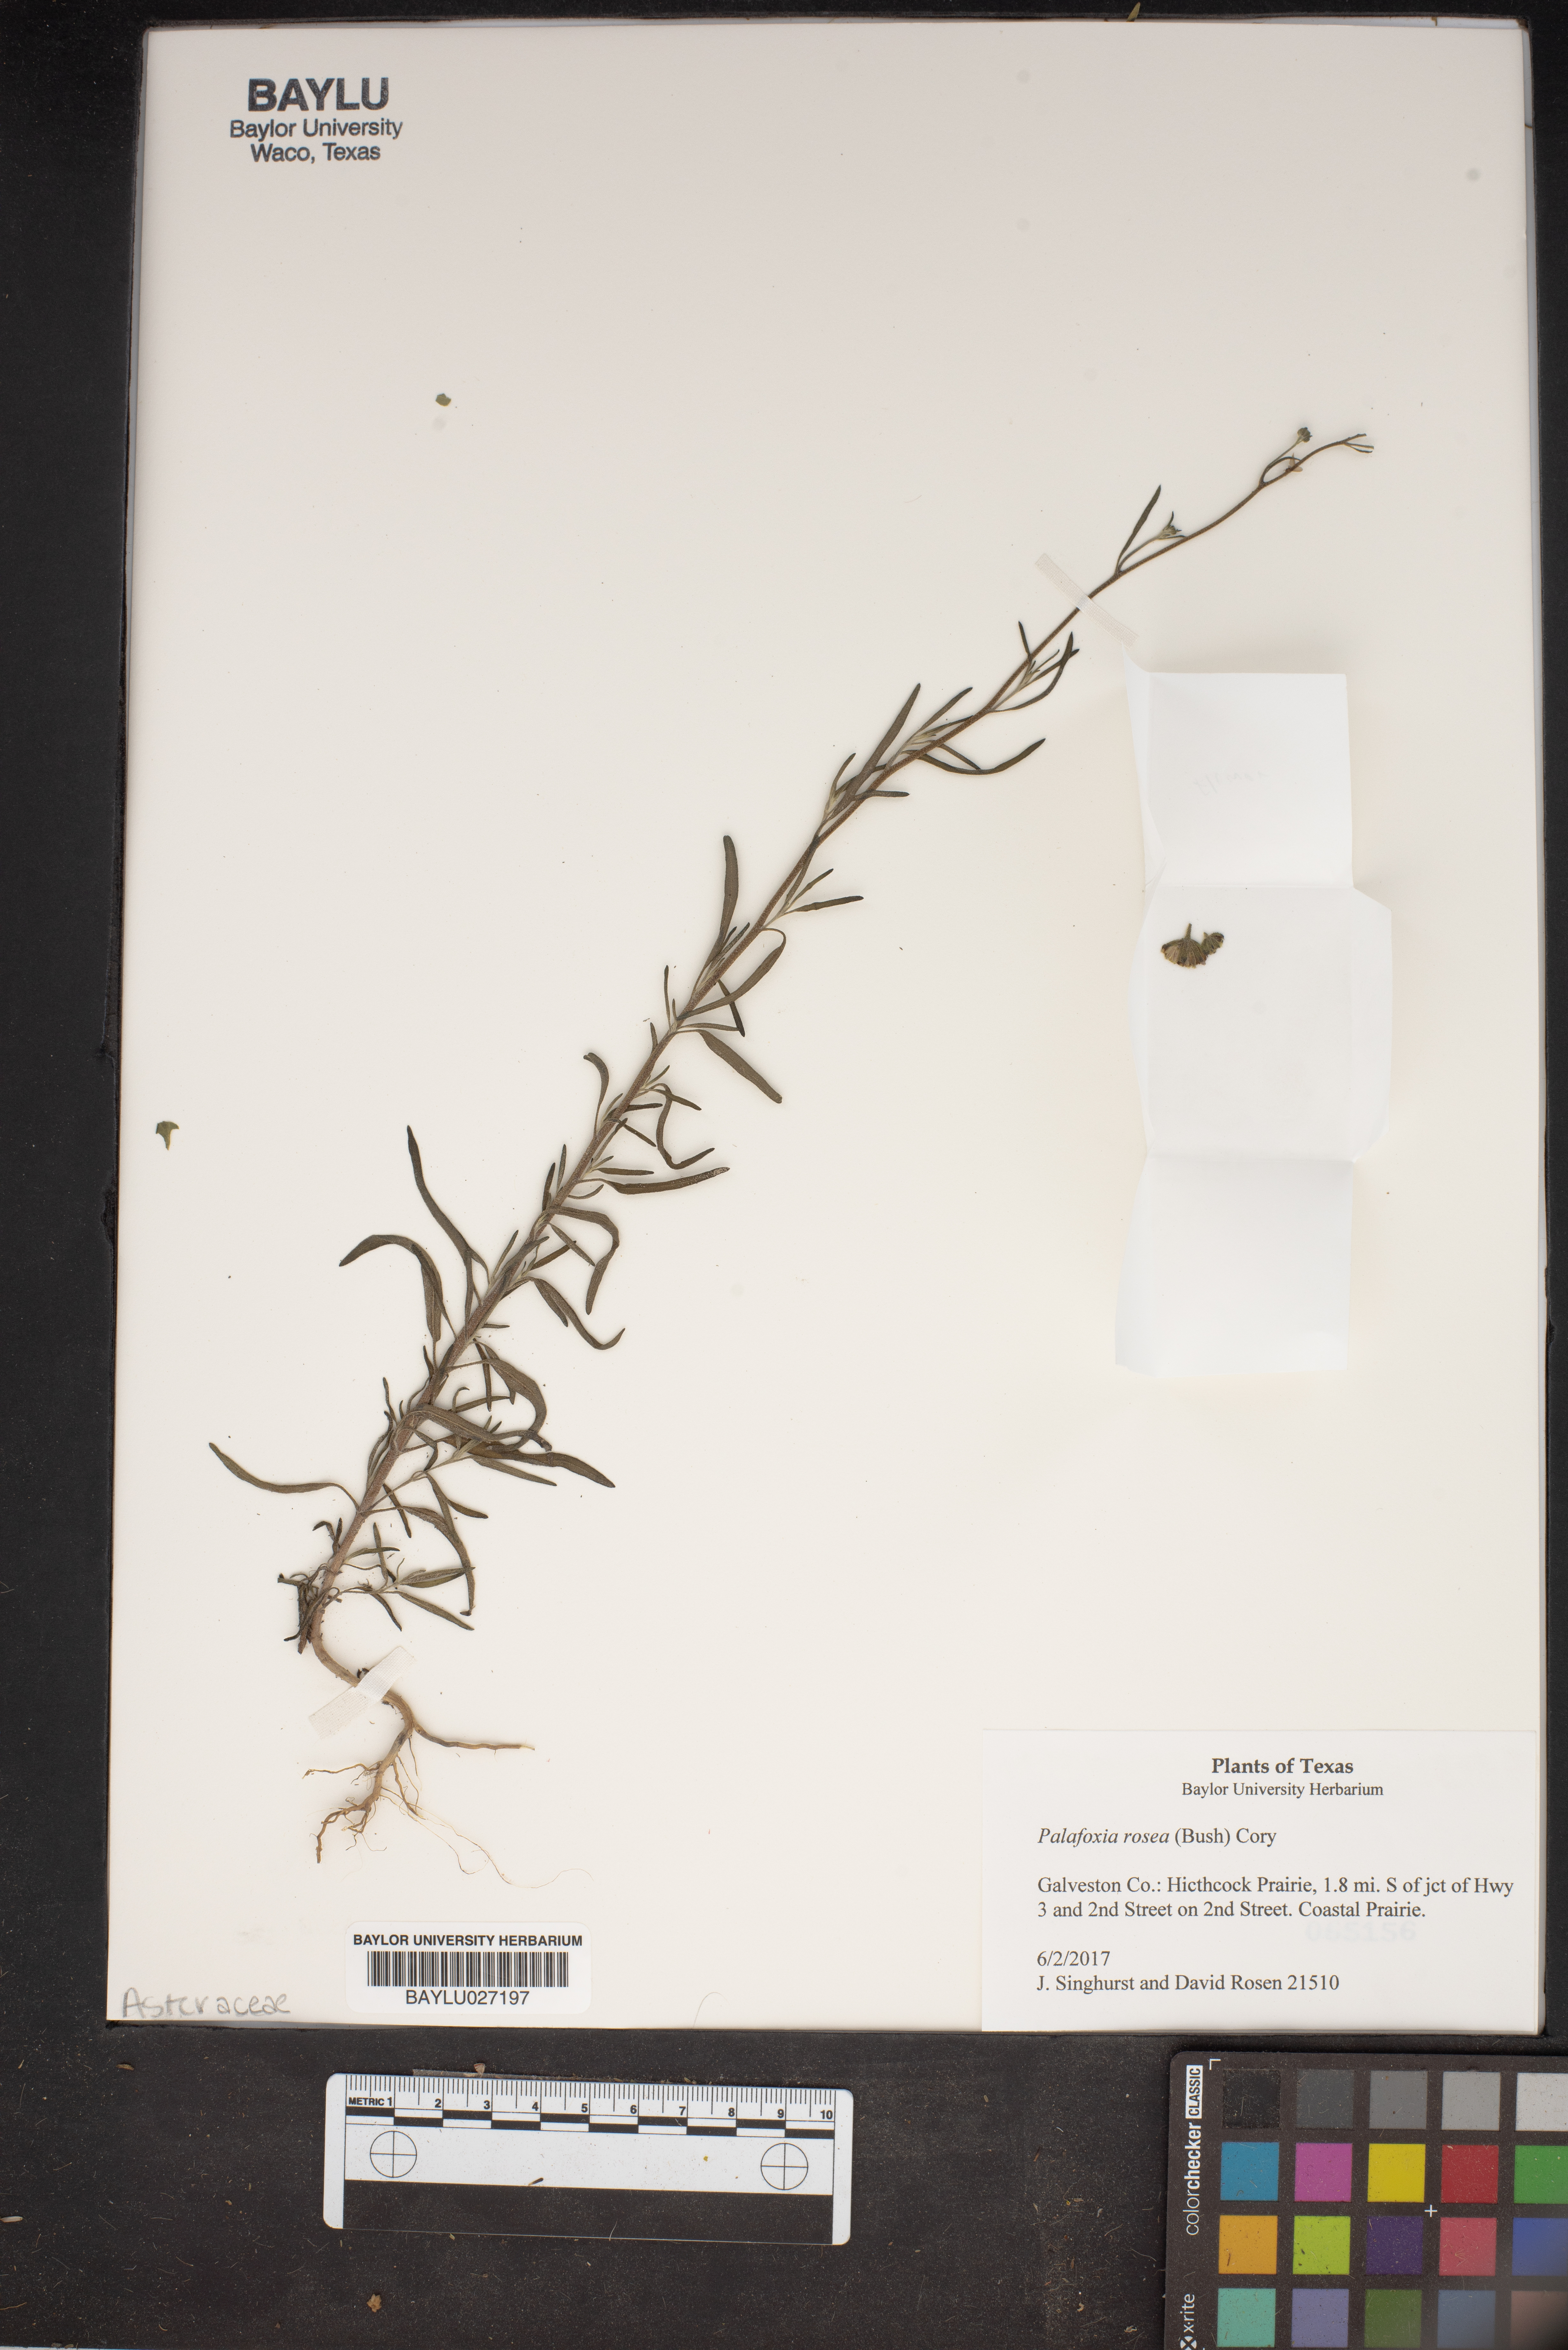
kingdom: Plantae
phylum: Tracheophyta
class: Magnoliopsida
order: Asterales
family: Asteraceae
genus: Palafoxia
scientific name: Palafoxia rosea
